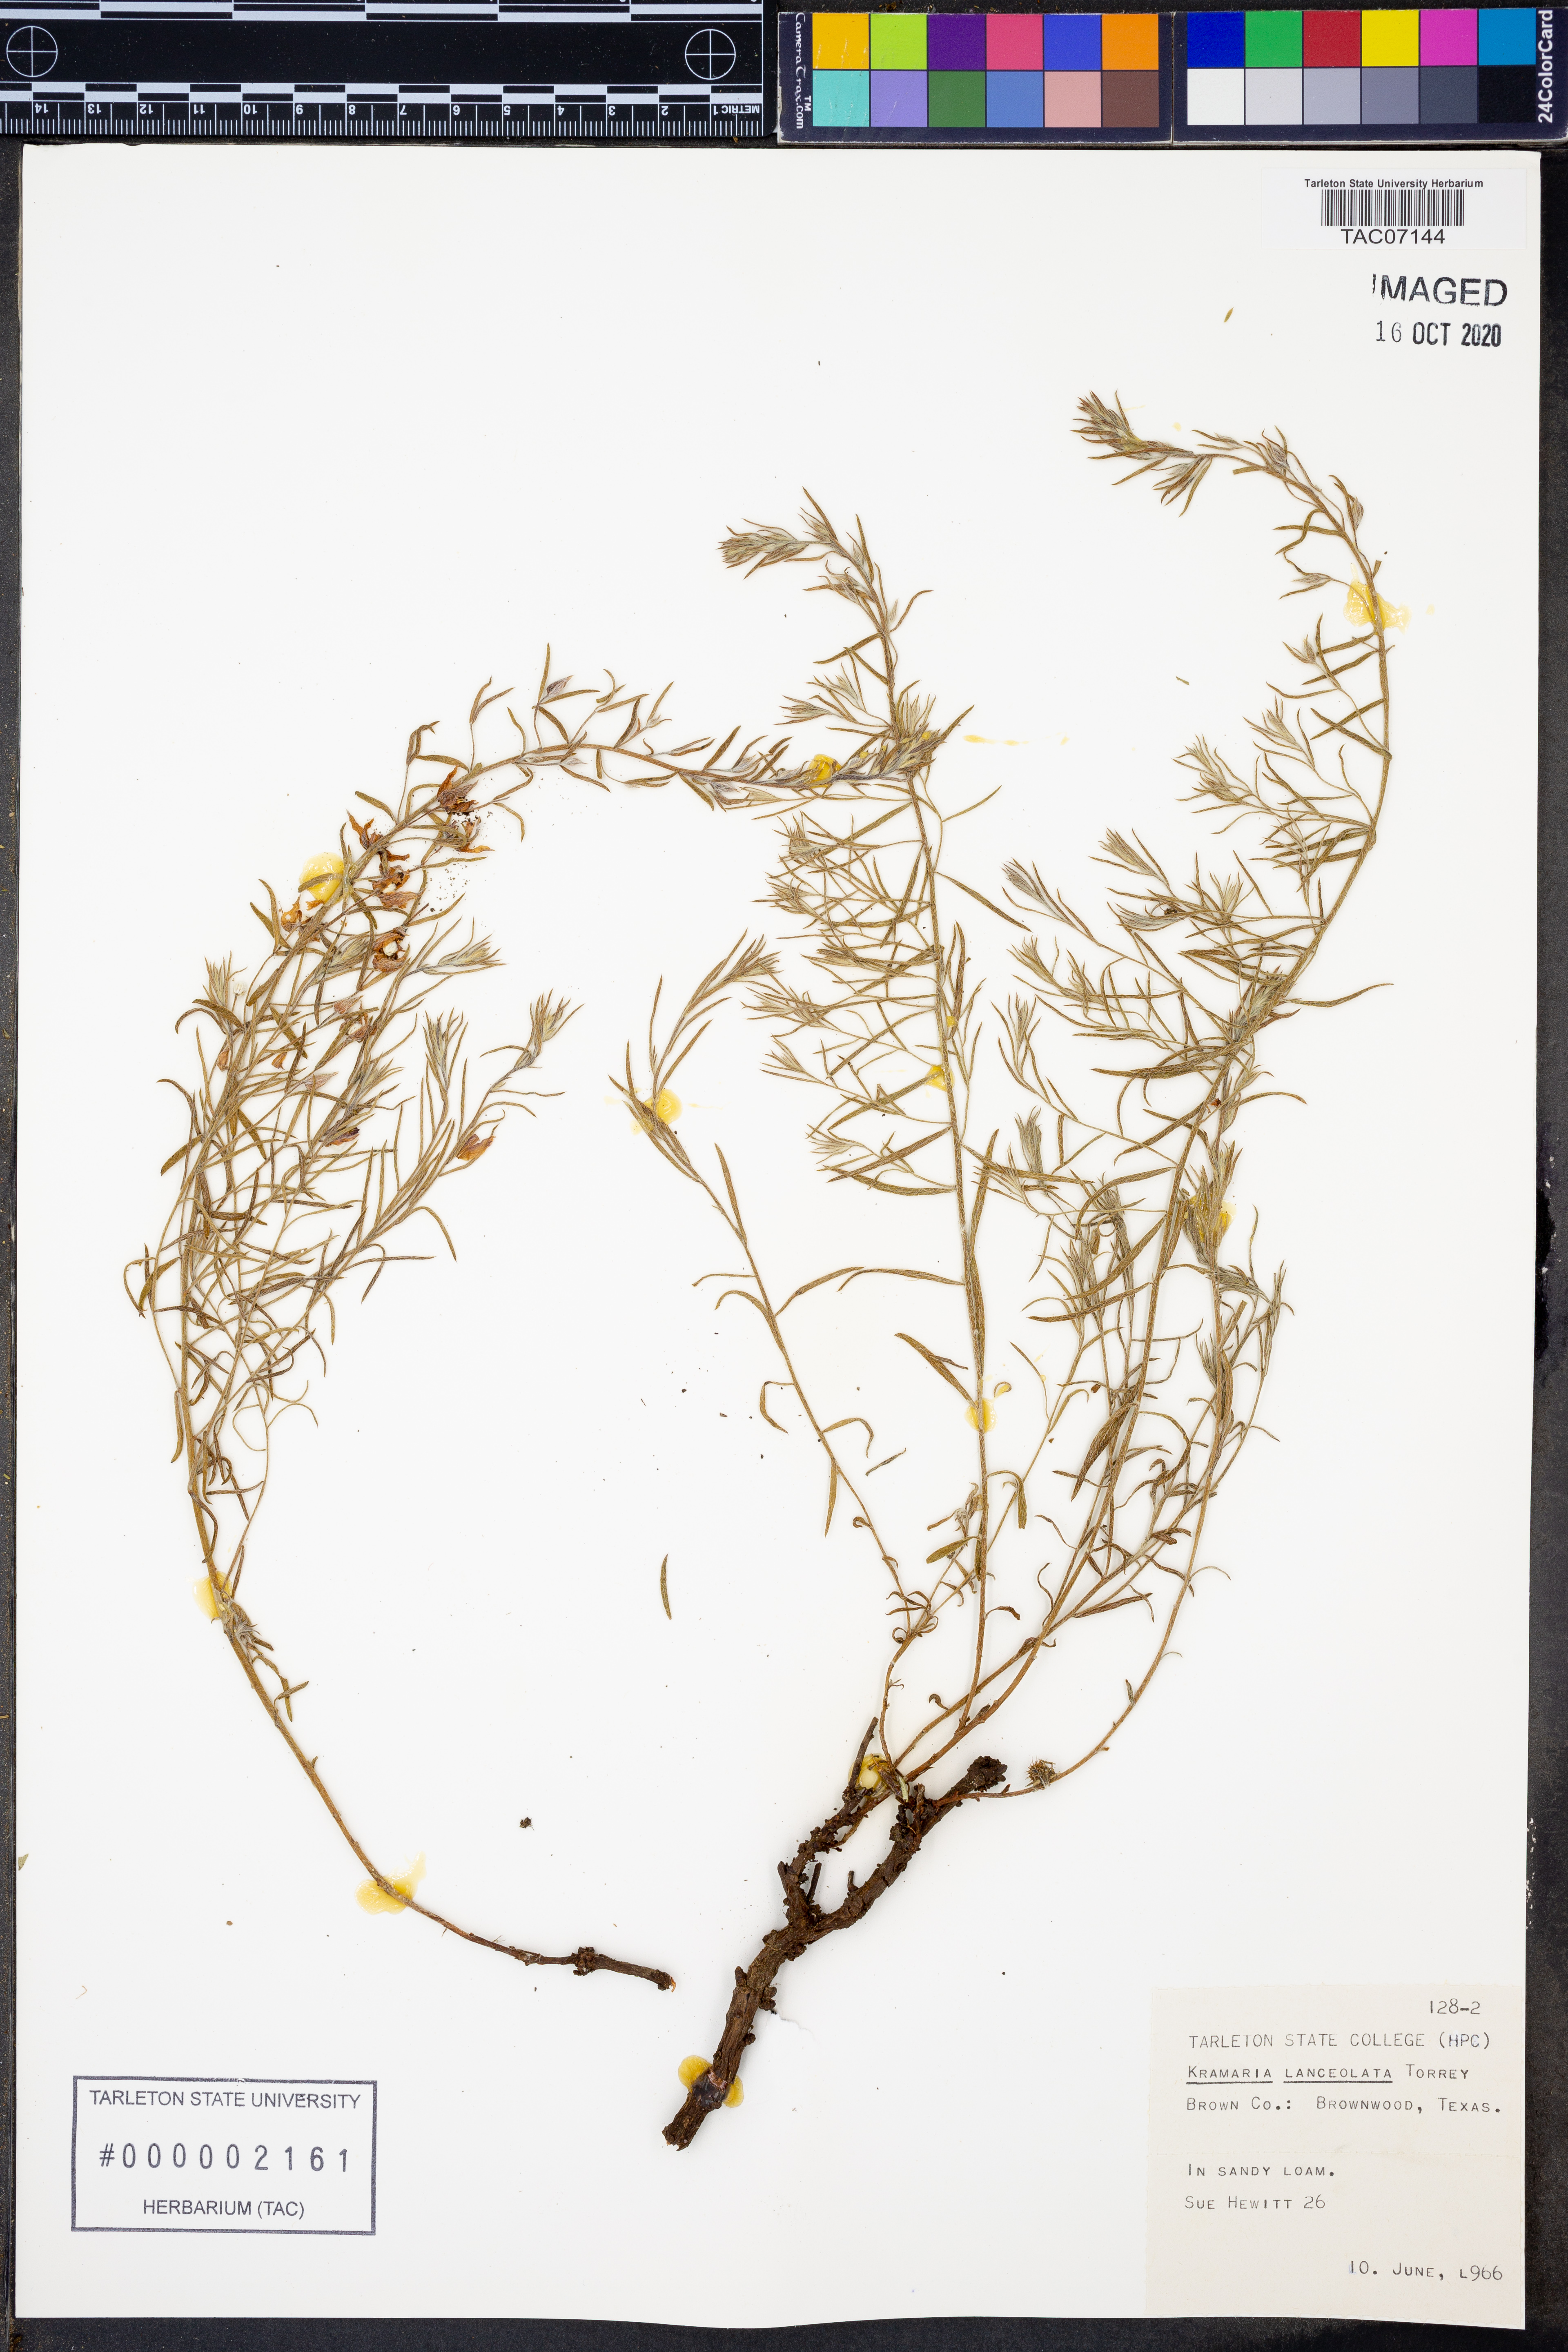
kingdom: Plantae
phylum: Tracheophyta
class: Magnoliopsida
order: Zygophyllales
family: Krameriaceae
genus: Krameria
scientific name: Krameria lanceolata
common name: Ratany
